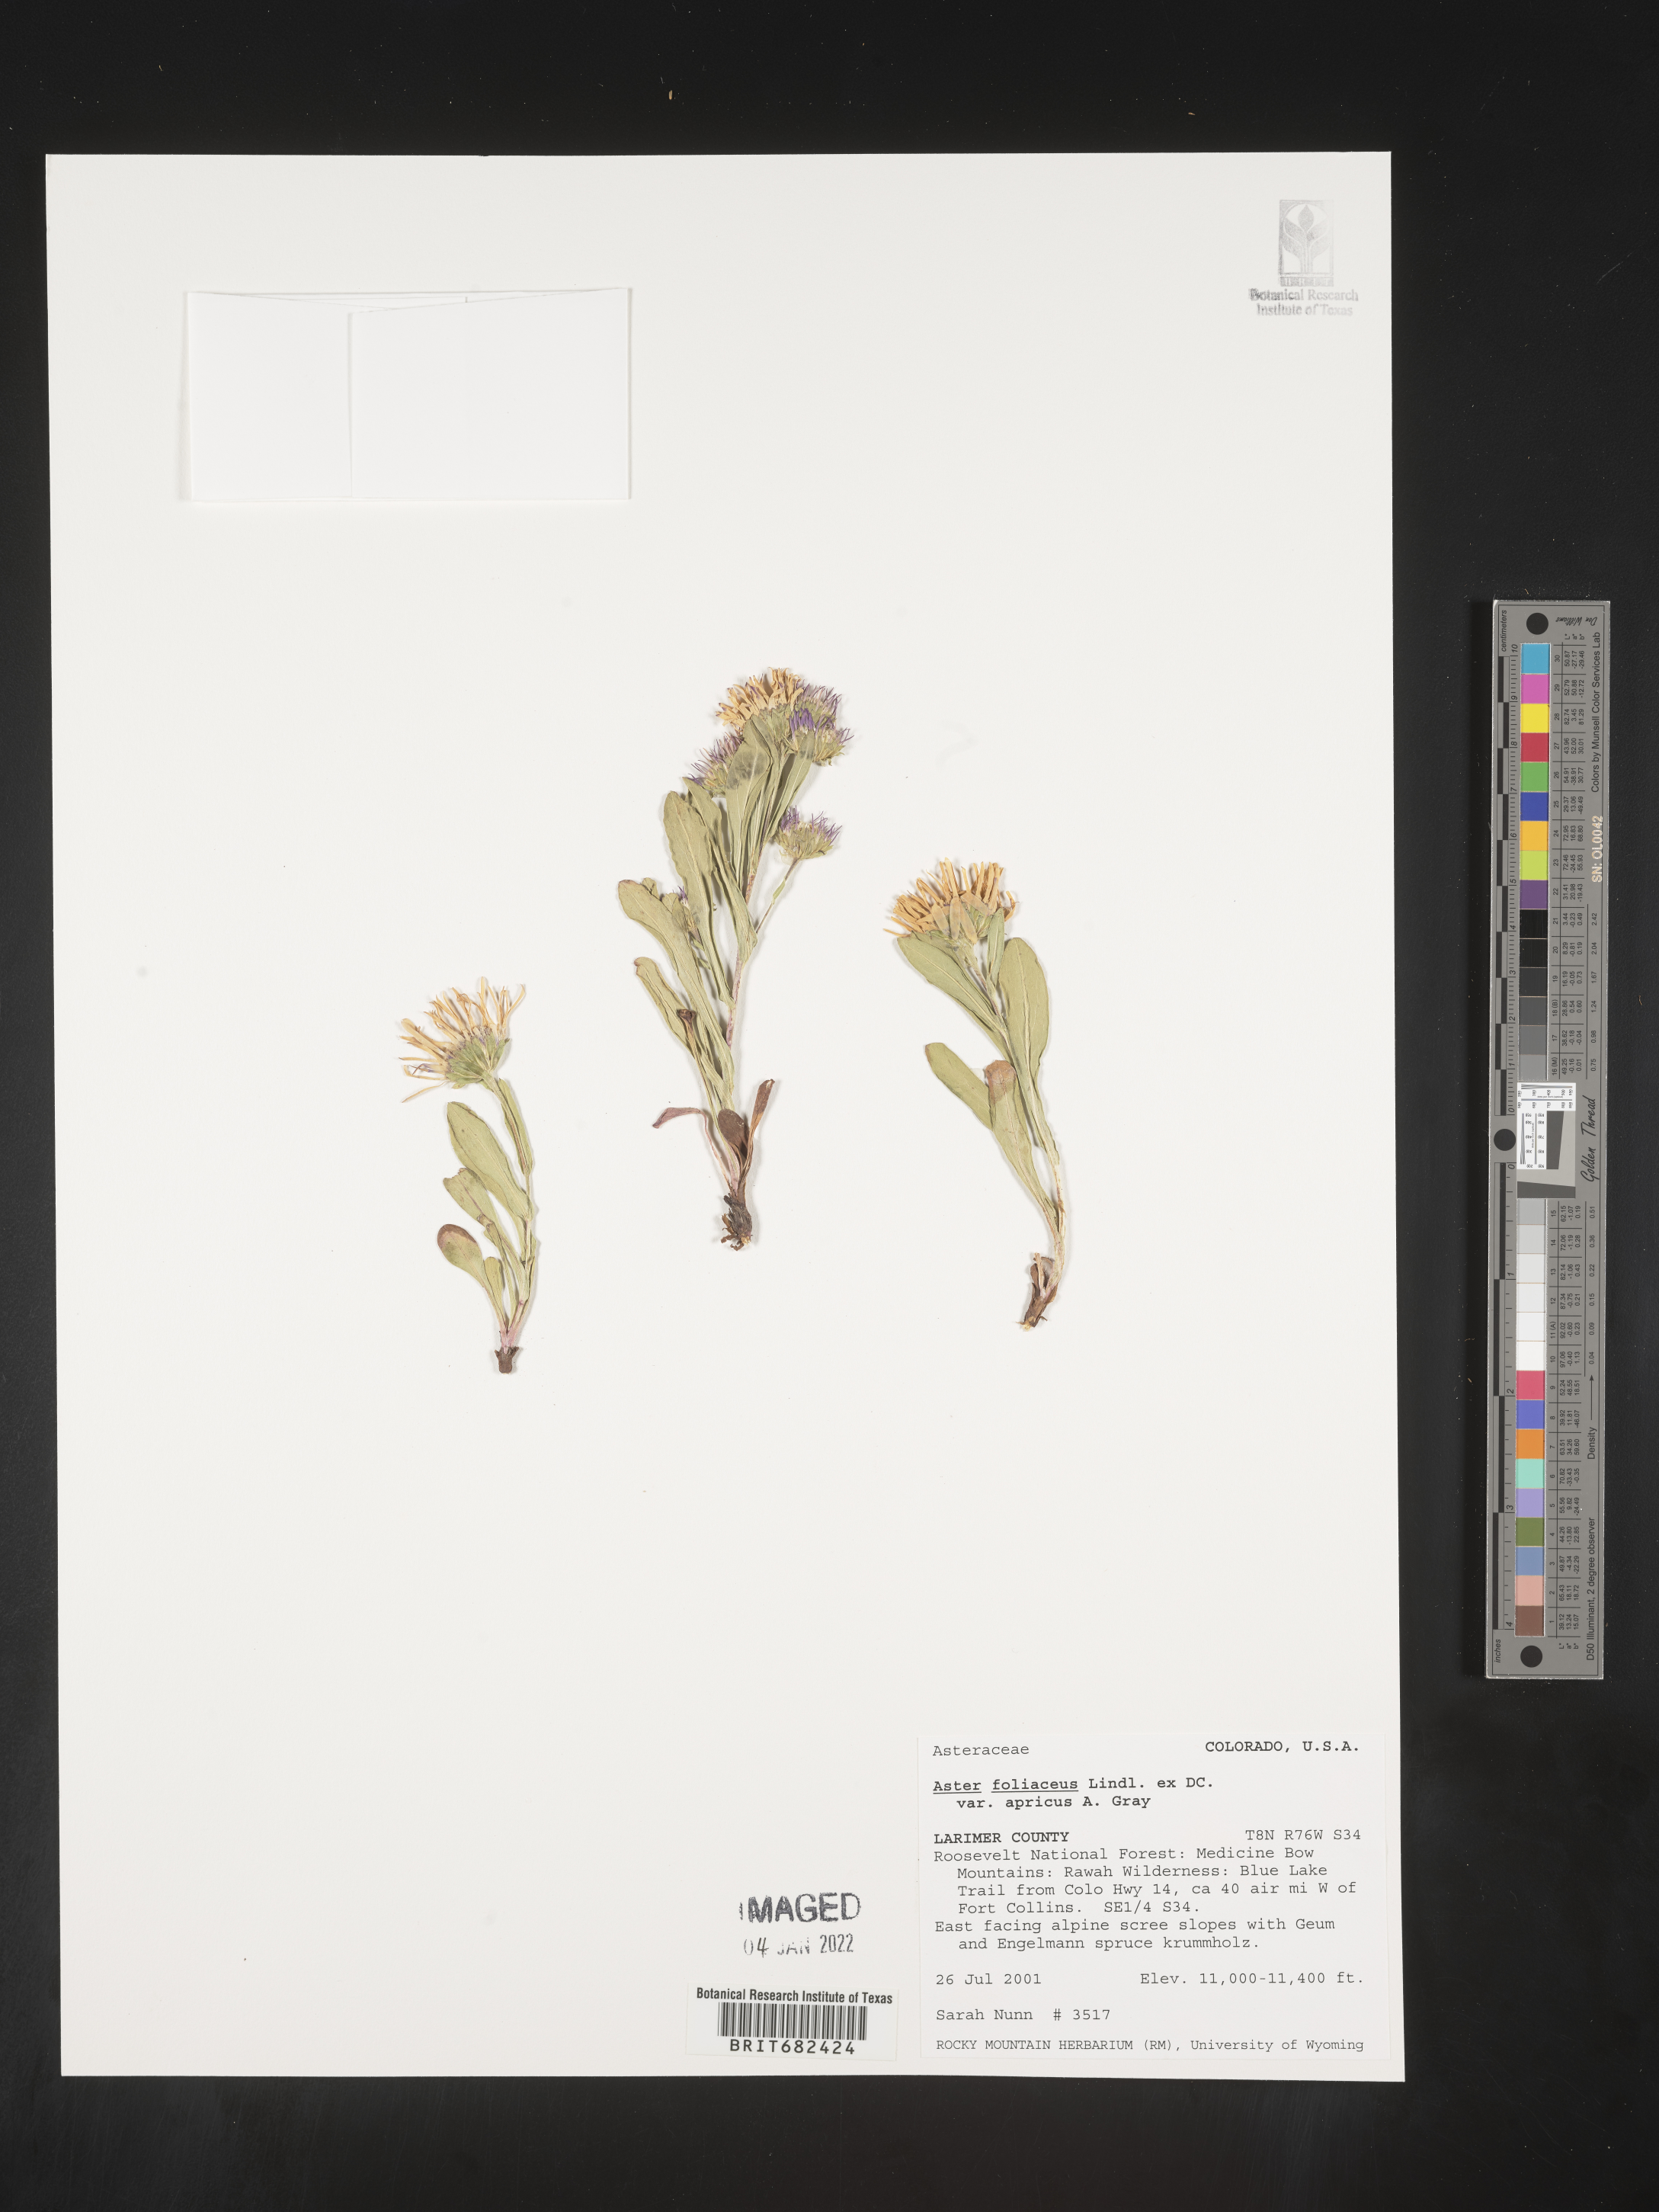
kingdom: Plantae
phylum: Tracheophyta
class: Magnoliopsida
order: Asterales
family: Asteraceae
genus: Aster
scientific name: Aster
